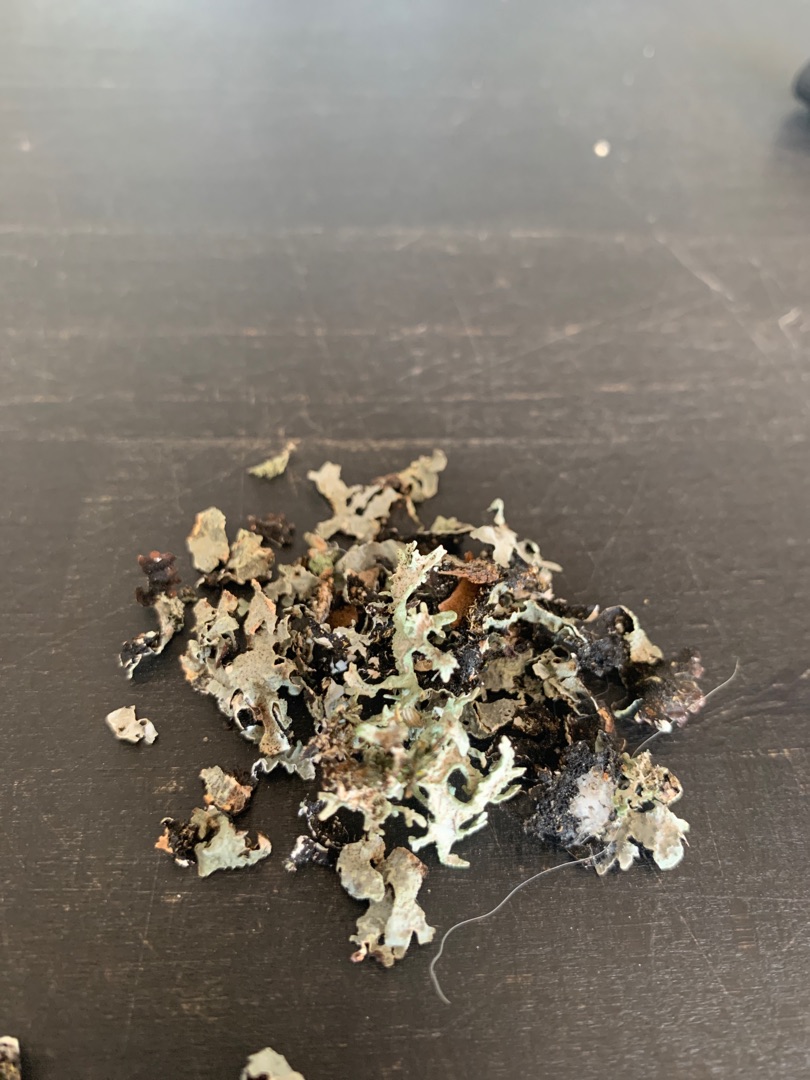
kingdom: Fungi
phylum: Ascomycota
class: Lecanoromycetes
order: Lecanorales
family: Parmeliaceae
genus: Parmelia
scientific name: Parmelia sulcata
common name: Rynket skållav
